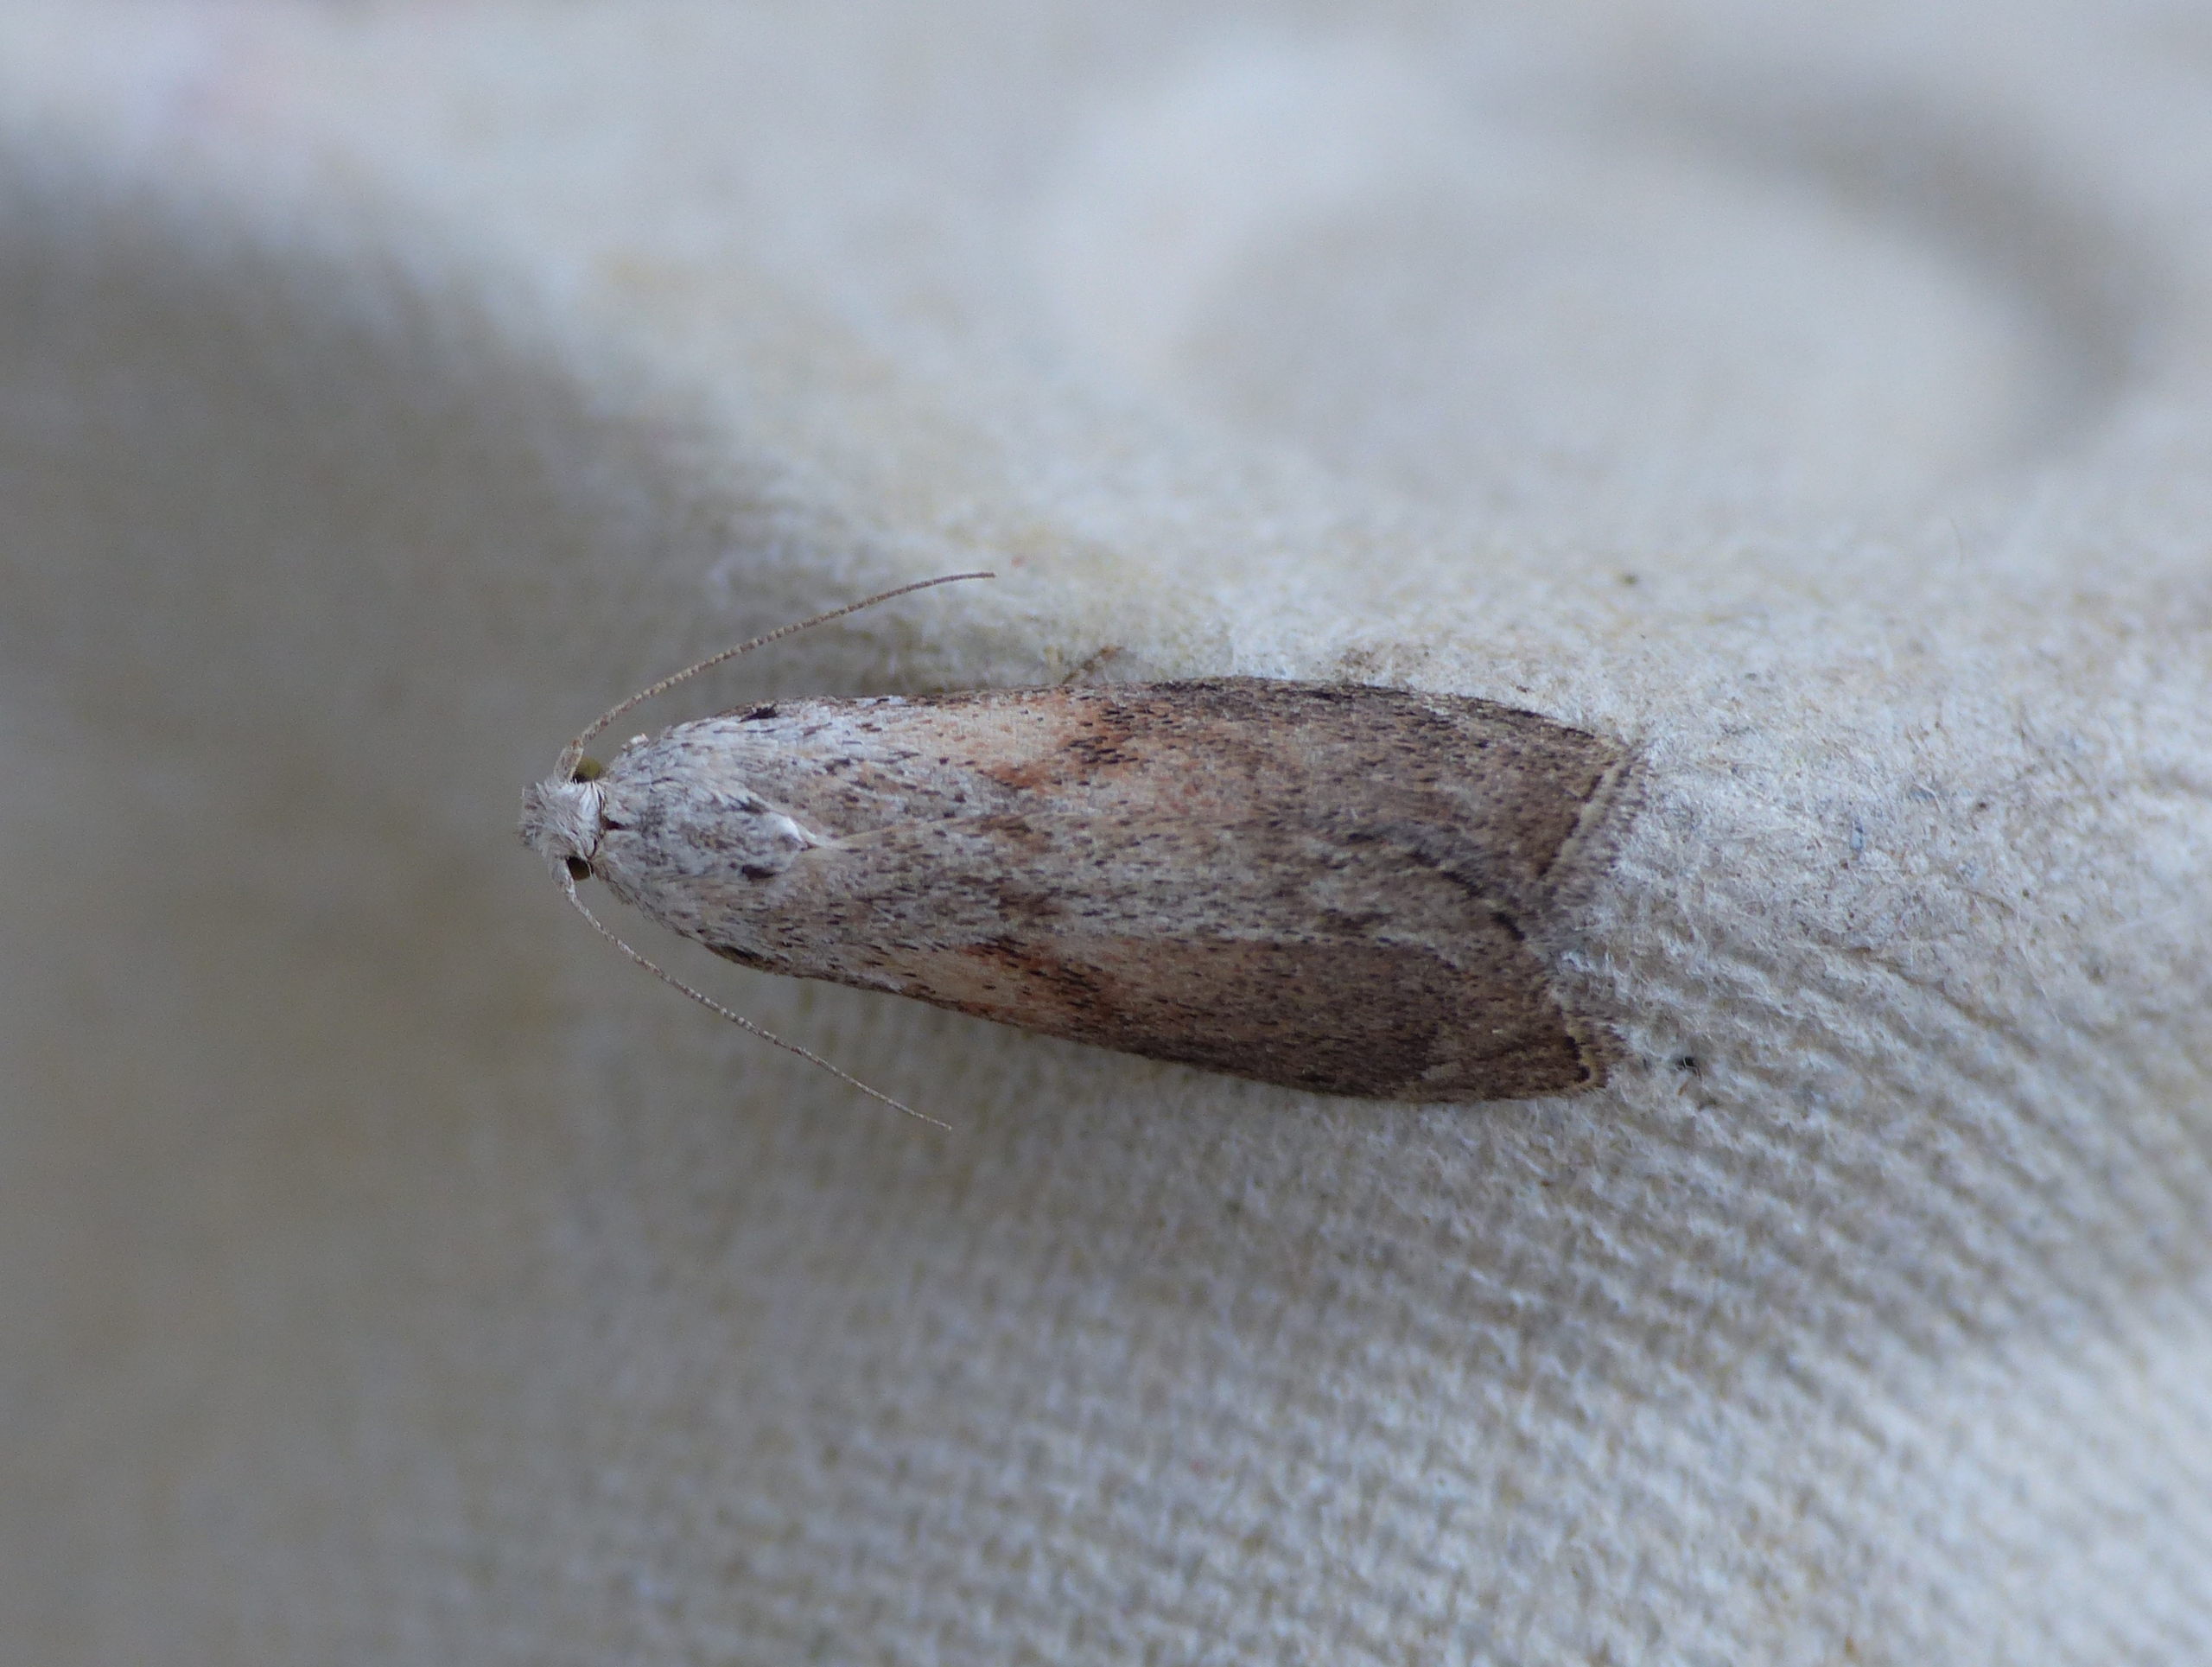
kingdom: Animalia
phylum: Arthropoda
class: Insecta
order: Lepidoptera
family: Pyralidae
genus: Aphomia
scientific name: Aphomia sociella
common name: Humlevoksmøl
